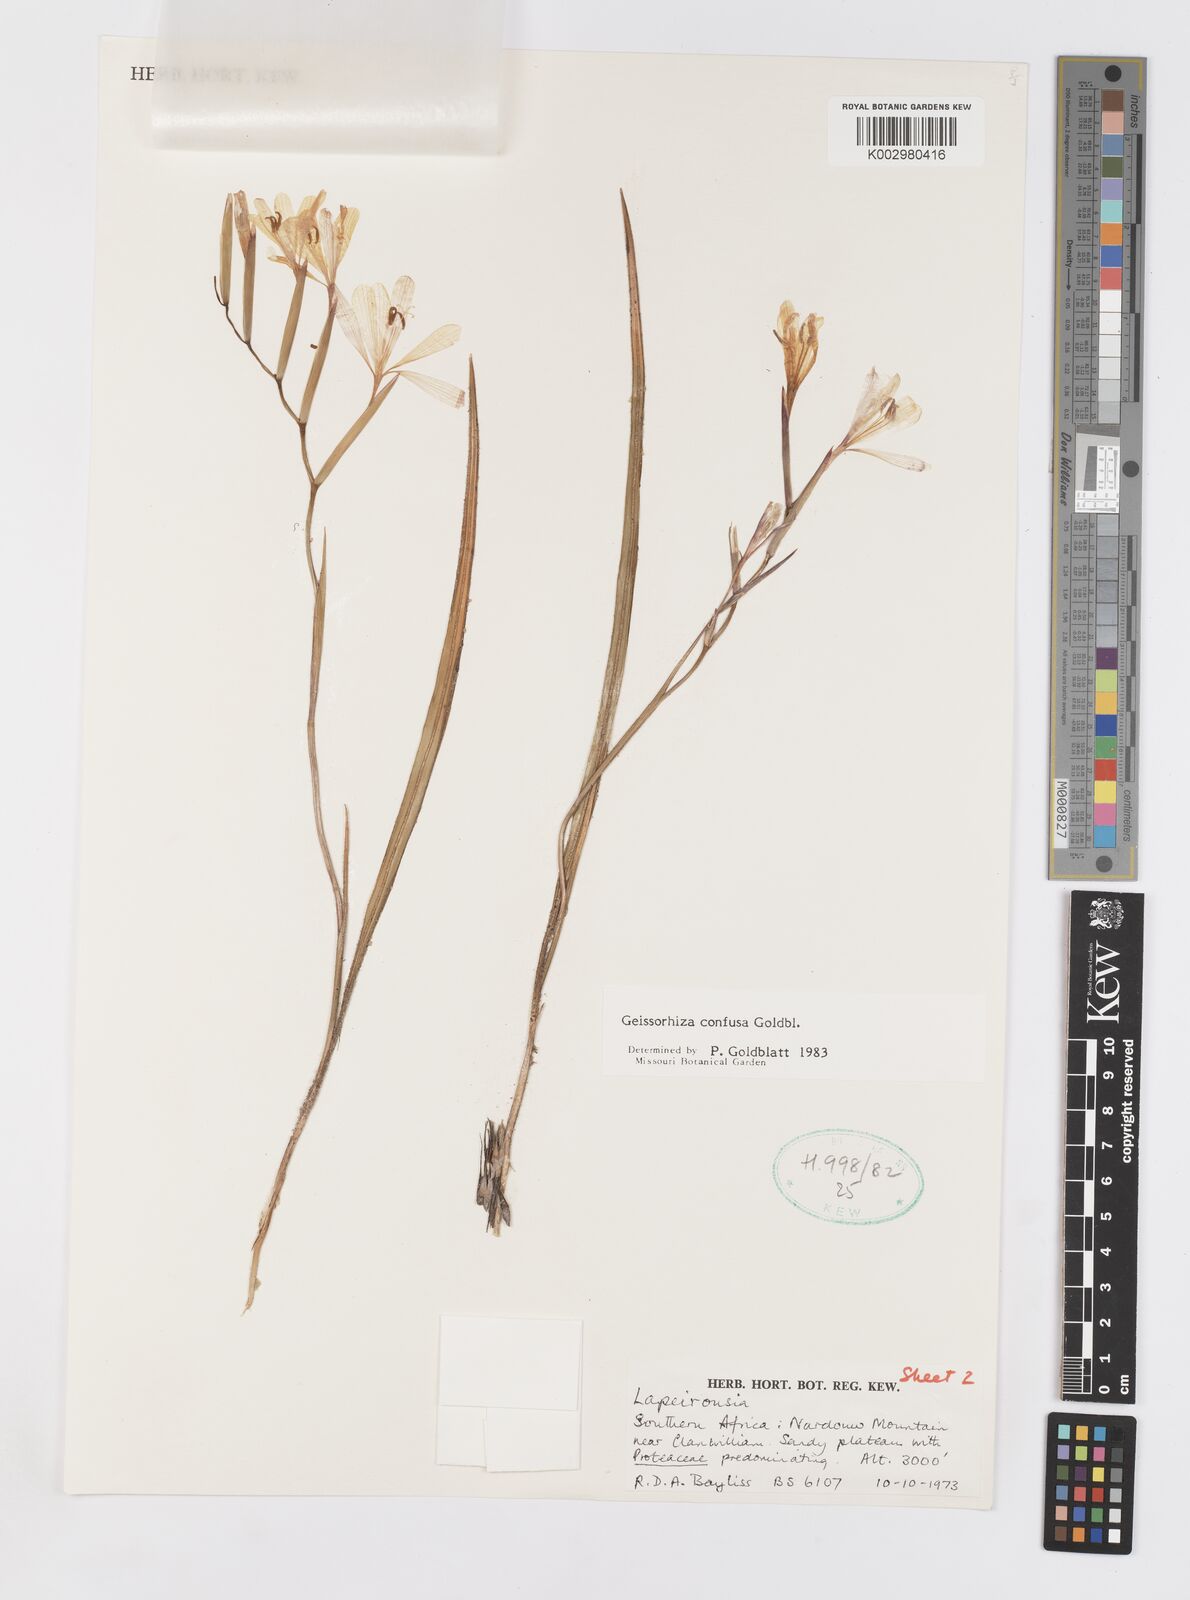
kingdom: Plantae
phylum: Tracheophyta
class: Liliopsida
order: Asparagales
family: Iridaceae
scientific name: Iridaceae
